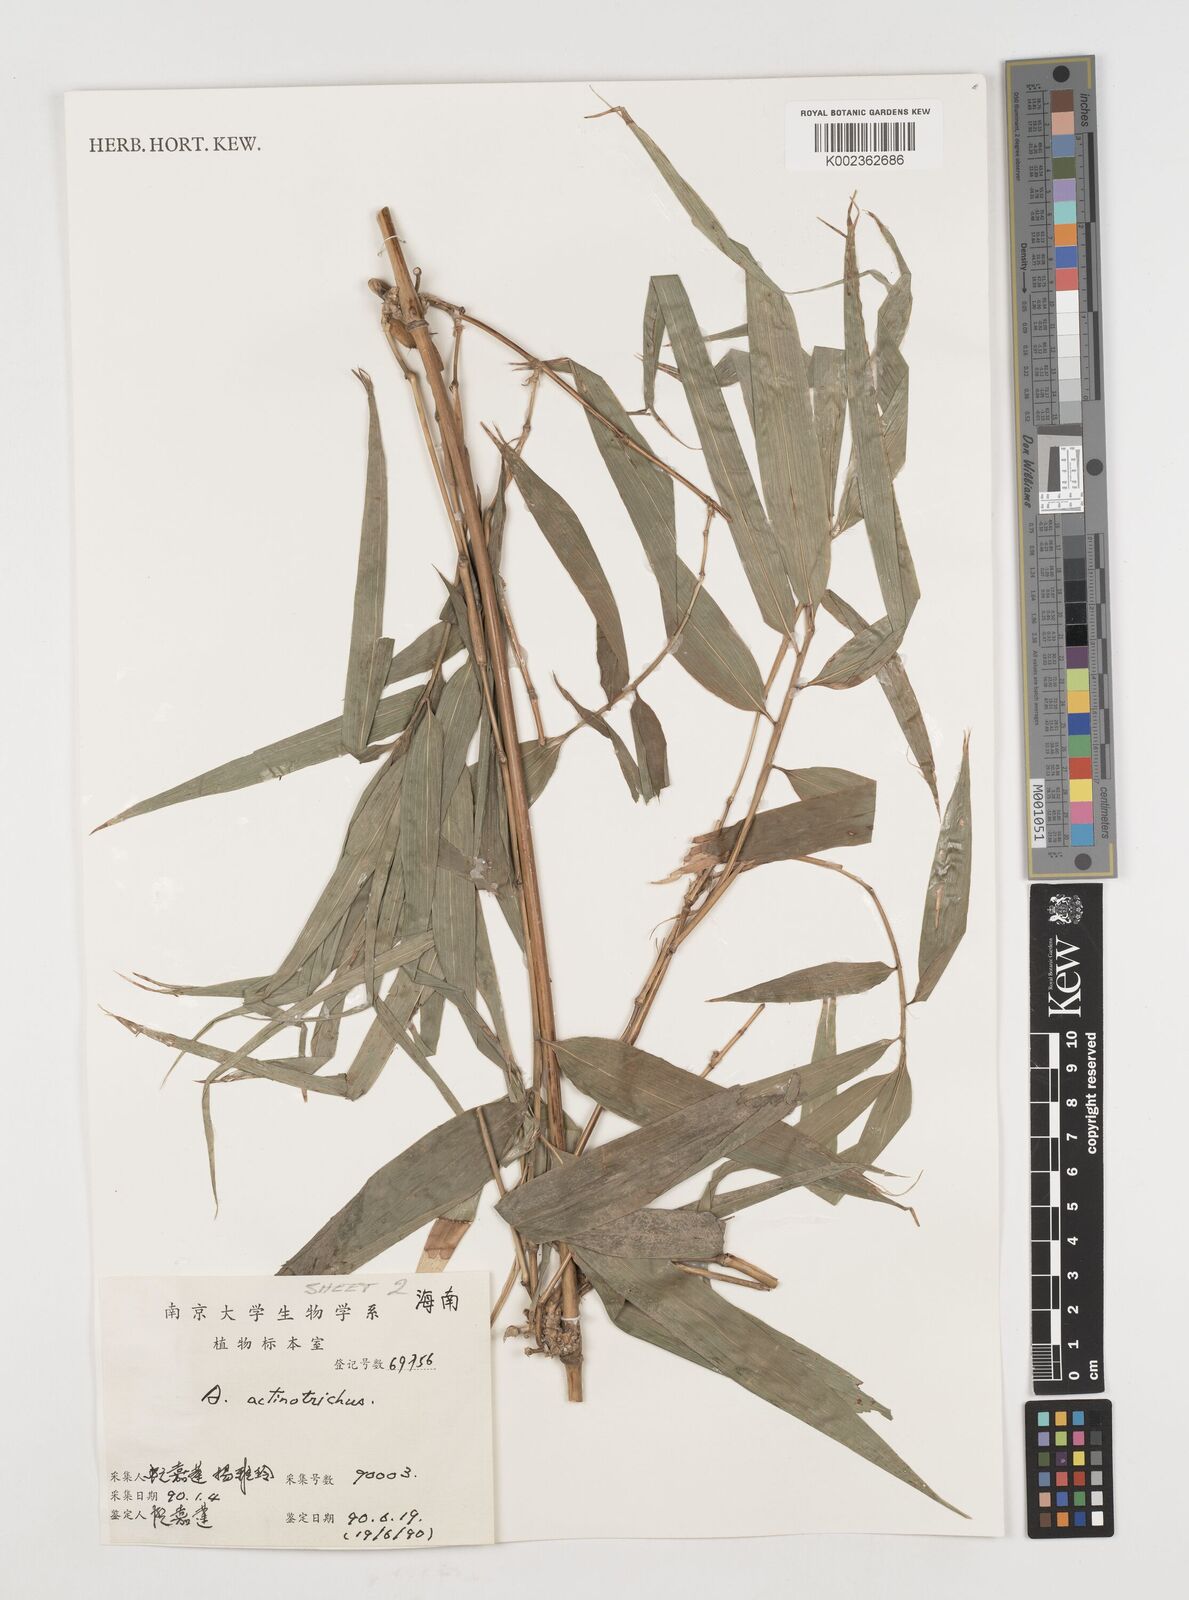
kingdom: Plantae
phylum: Tracheophyta
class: Liliopsida
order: Poales
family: Poaceae
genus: Ampelocalamus
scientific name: Ampelocalamus actinotrichus
